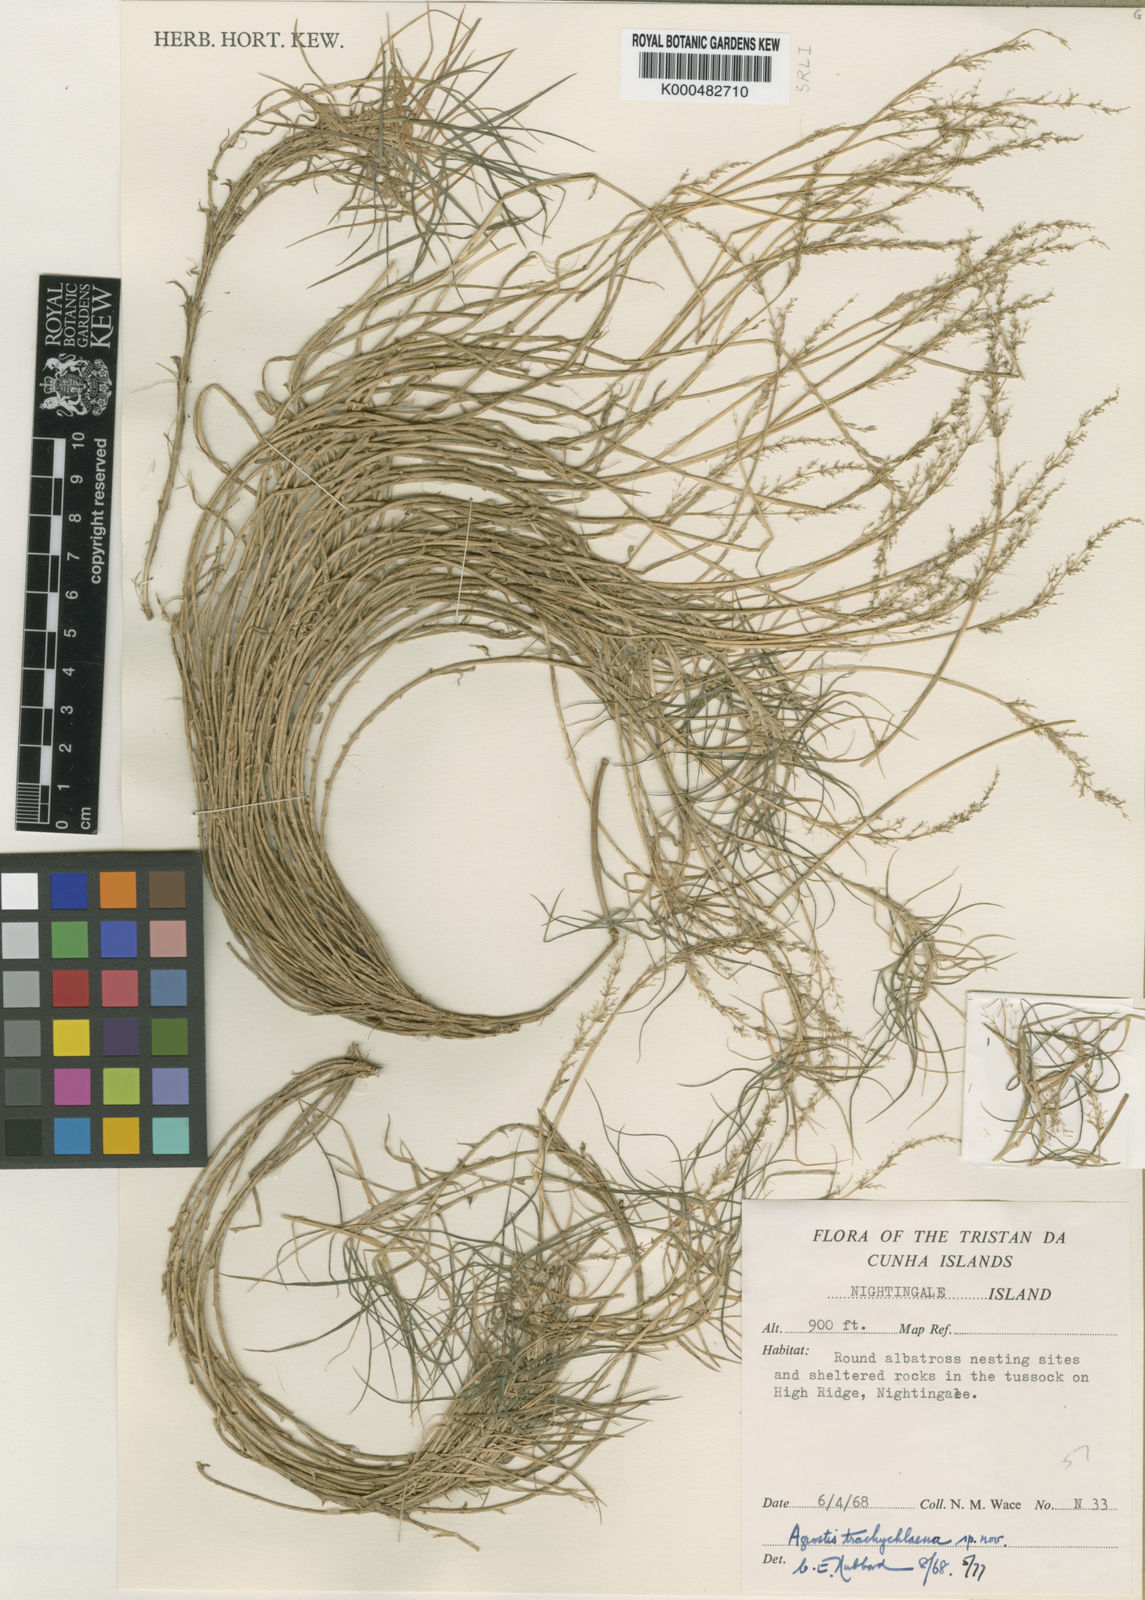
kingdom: Plantae
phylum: Tracheophyta
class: Liliopsida
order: Poales
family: Poaceae
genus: Agrostis
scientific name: Agrostis trachychlaena
